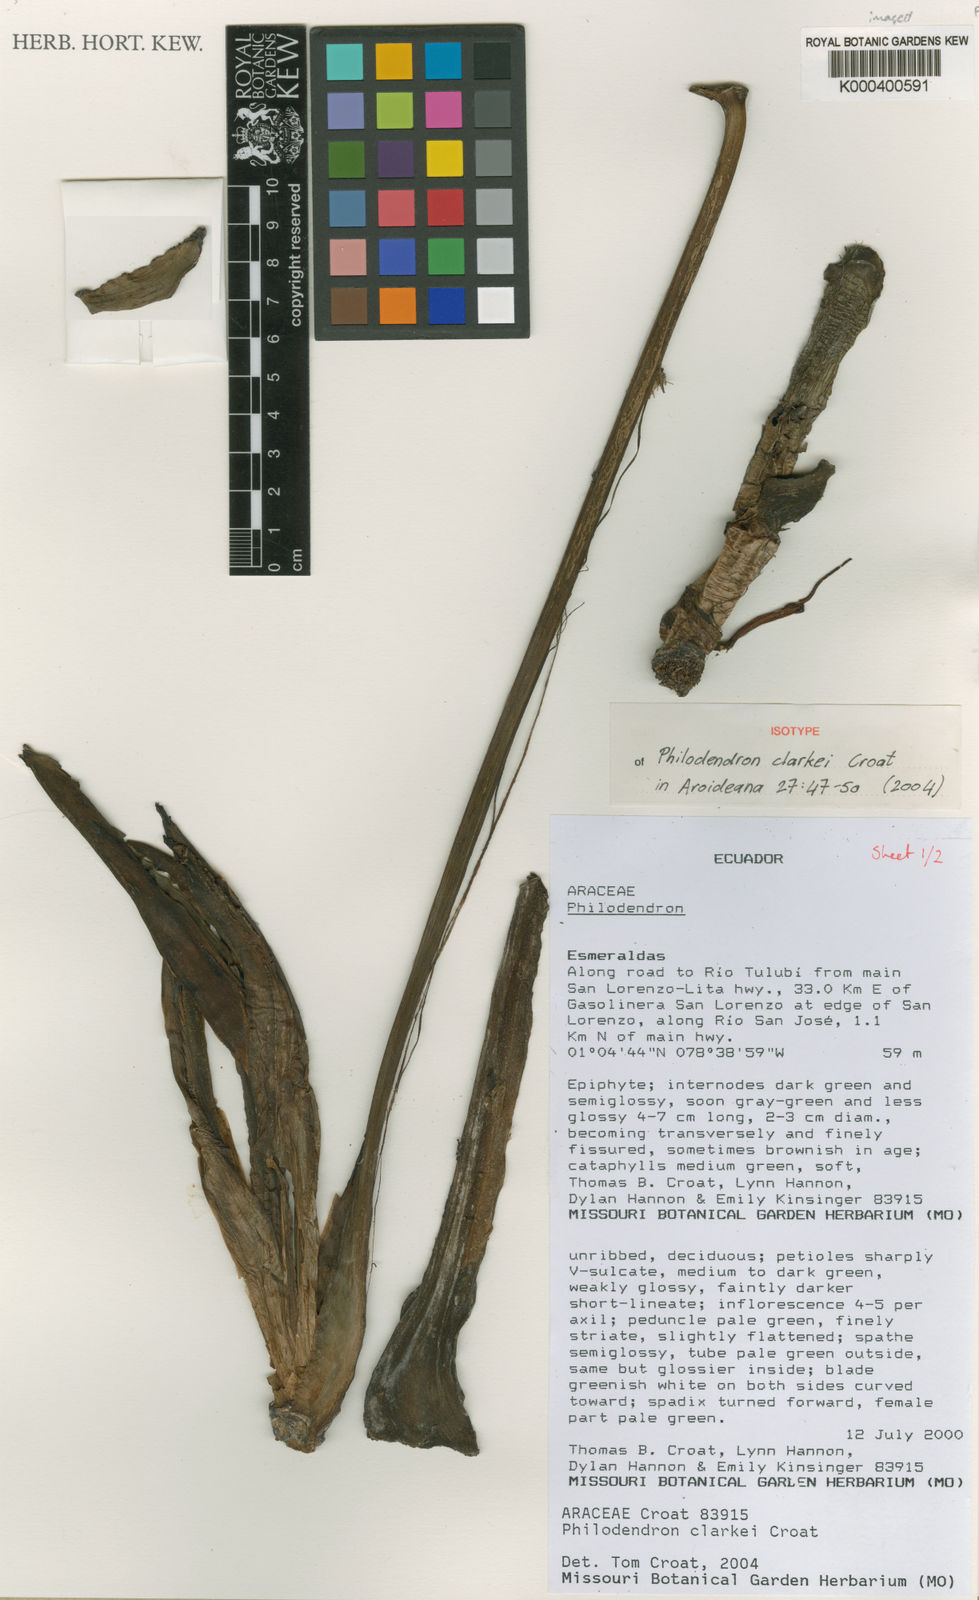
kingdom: Plantae
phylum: Tracheophyta
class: Liliopsida
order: Alismatales
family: Araceae
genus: Philodendron
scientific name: Philodendron clarkei
